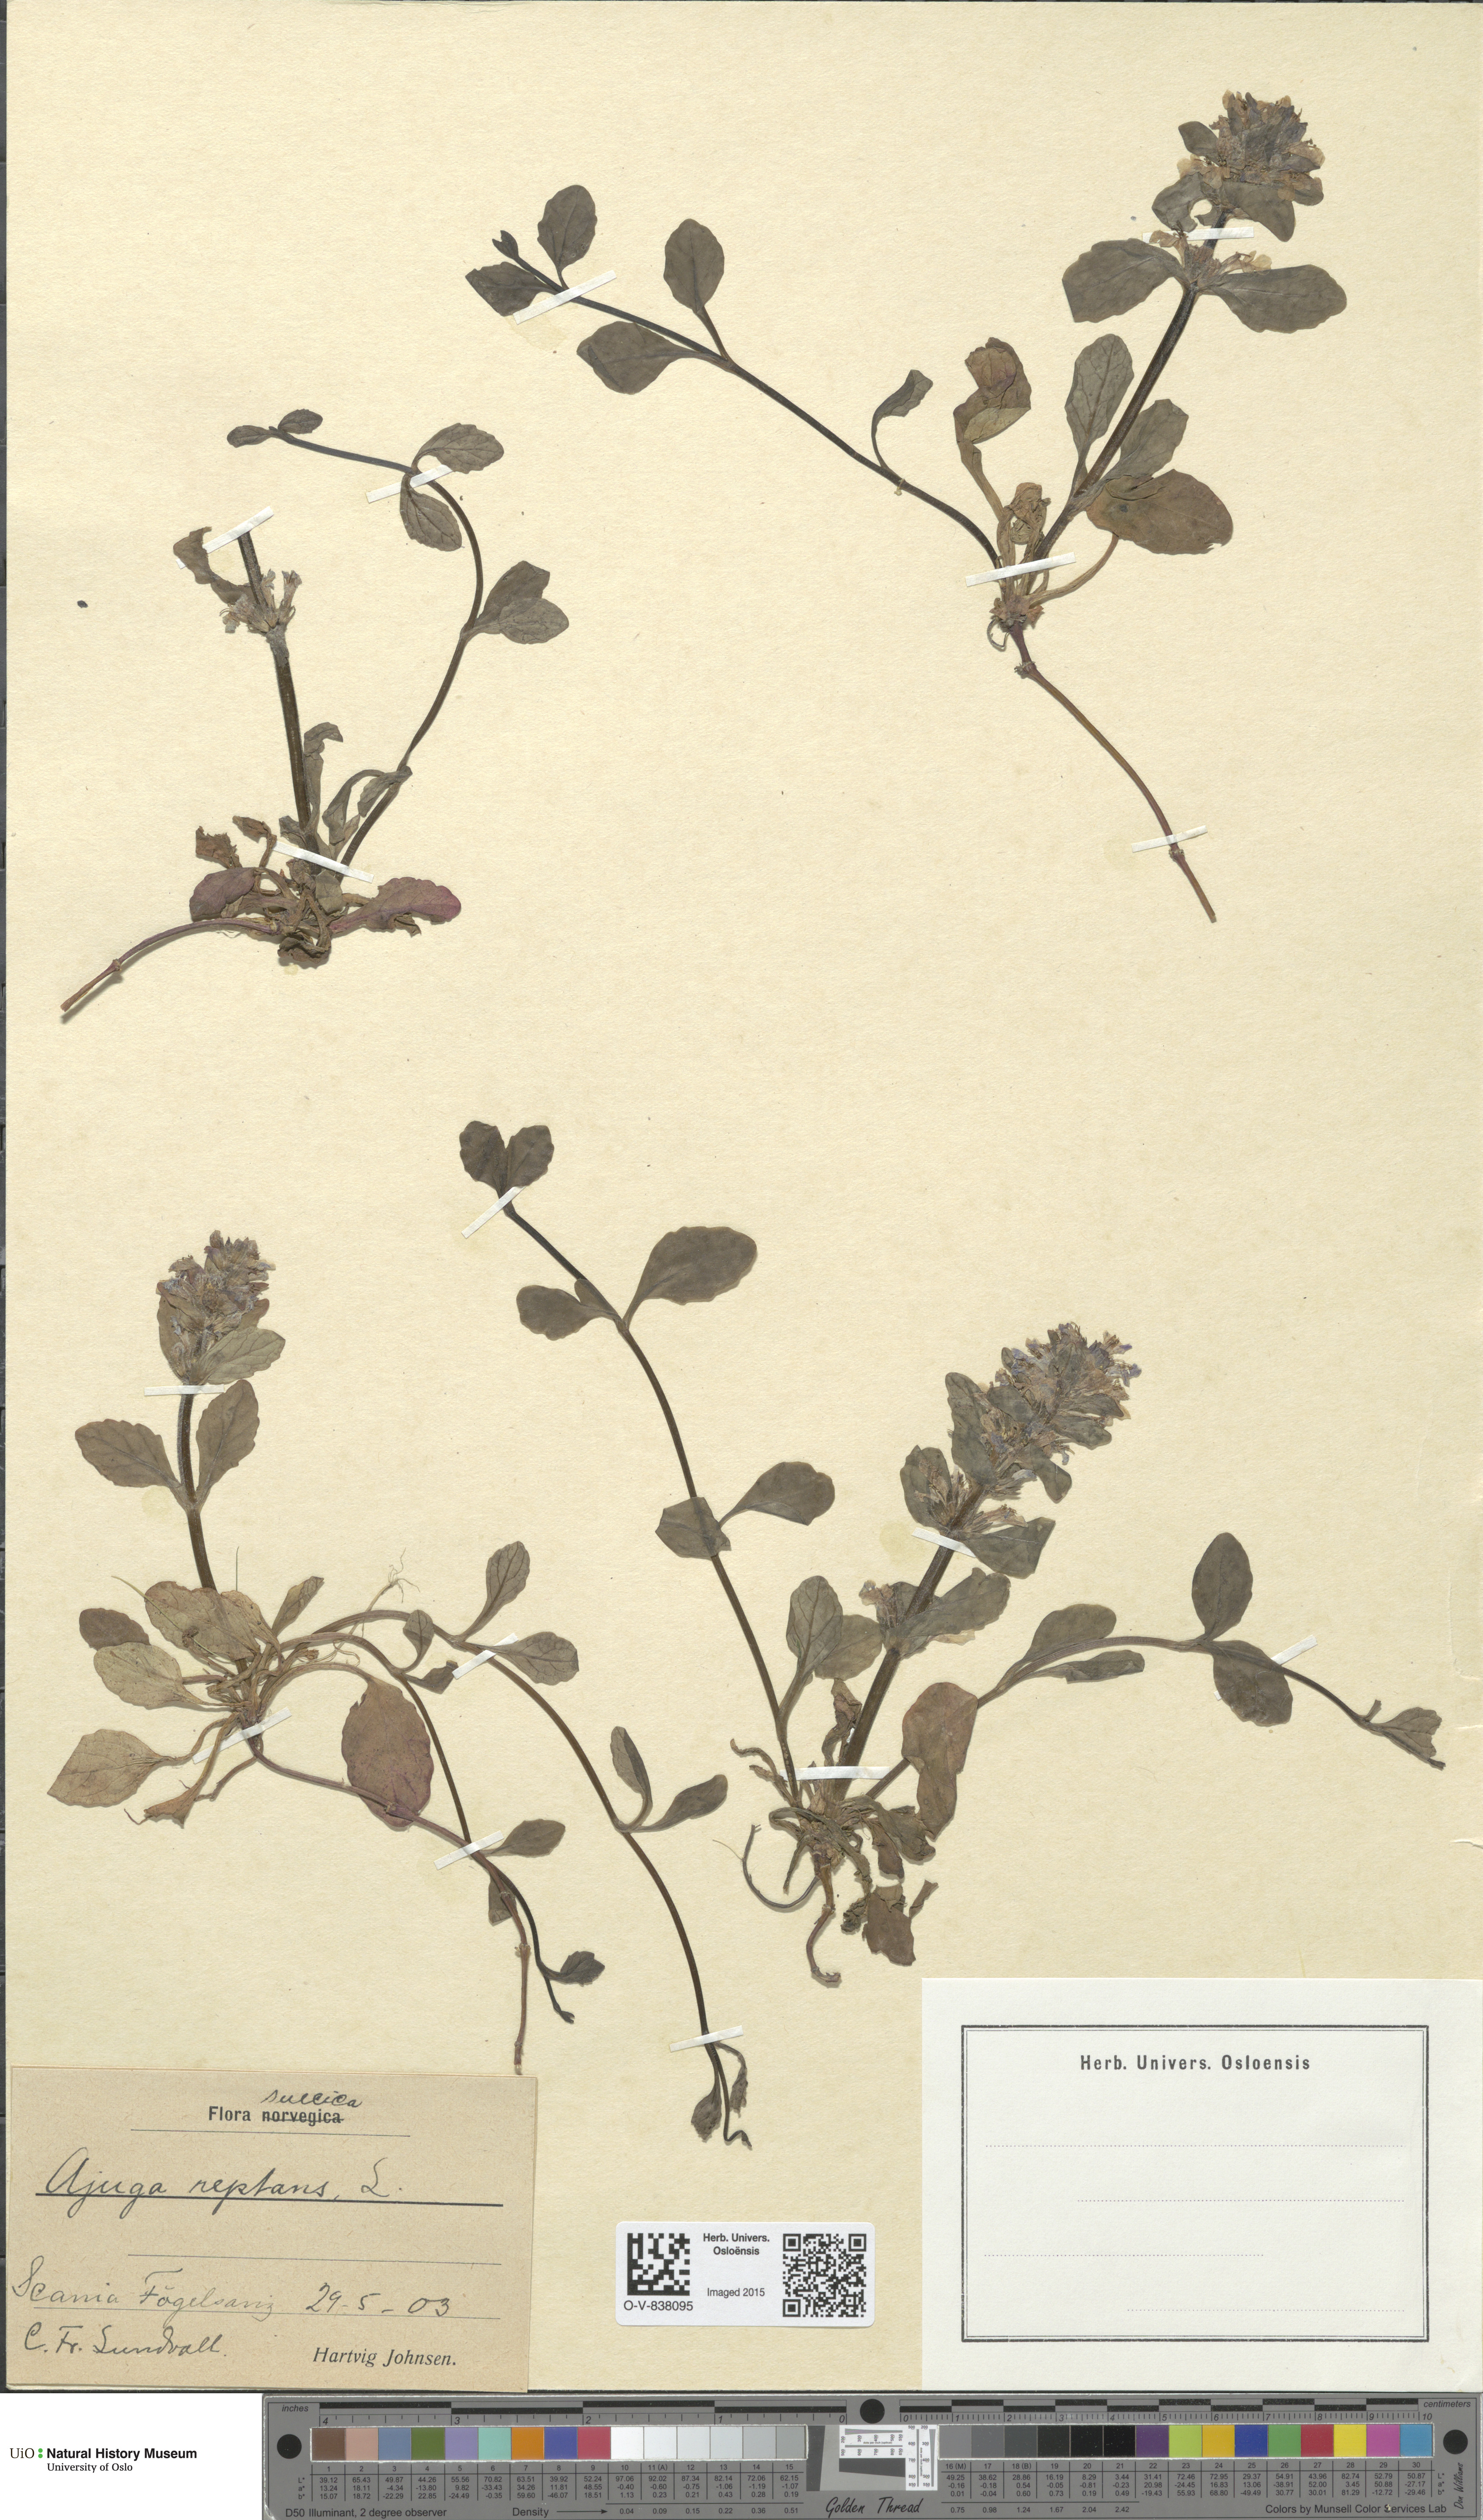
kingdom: Plantae
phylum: Tracheophyta
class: Magnoliopsida
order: Lamiales
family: Lamiaceae
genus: Ajuga
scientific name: Ajuga reptans
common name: Bugle
